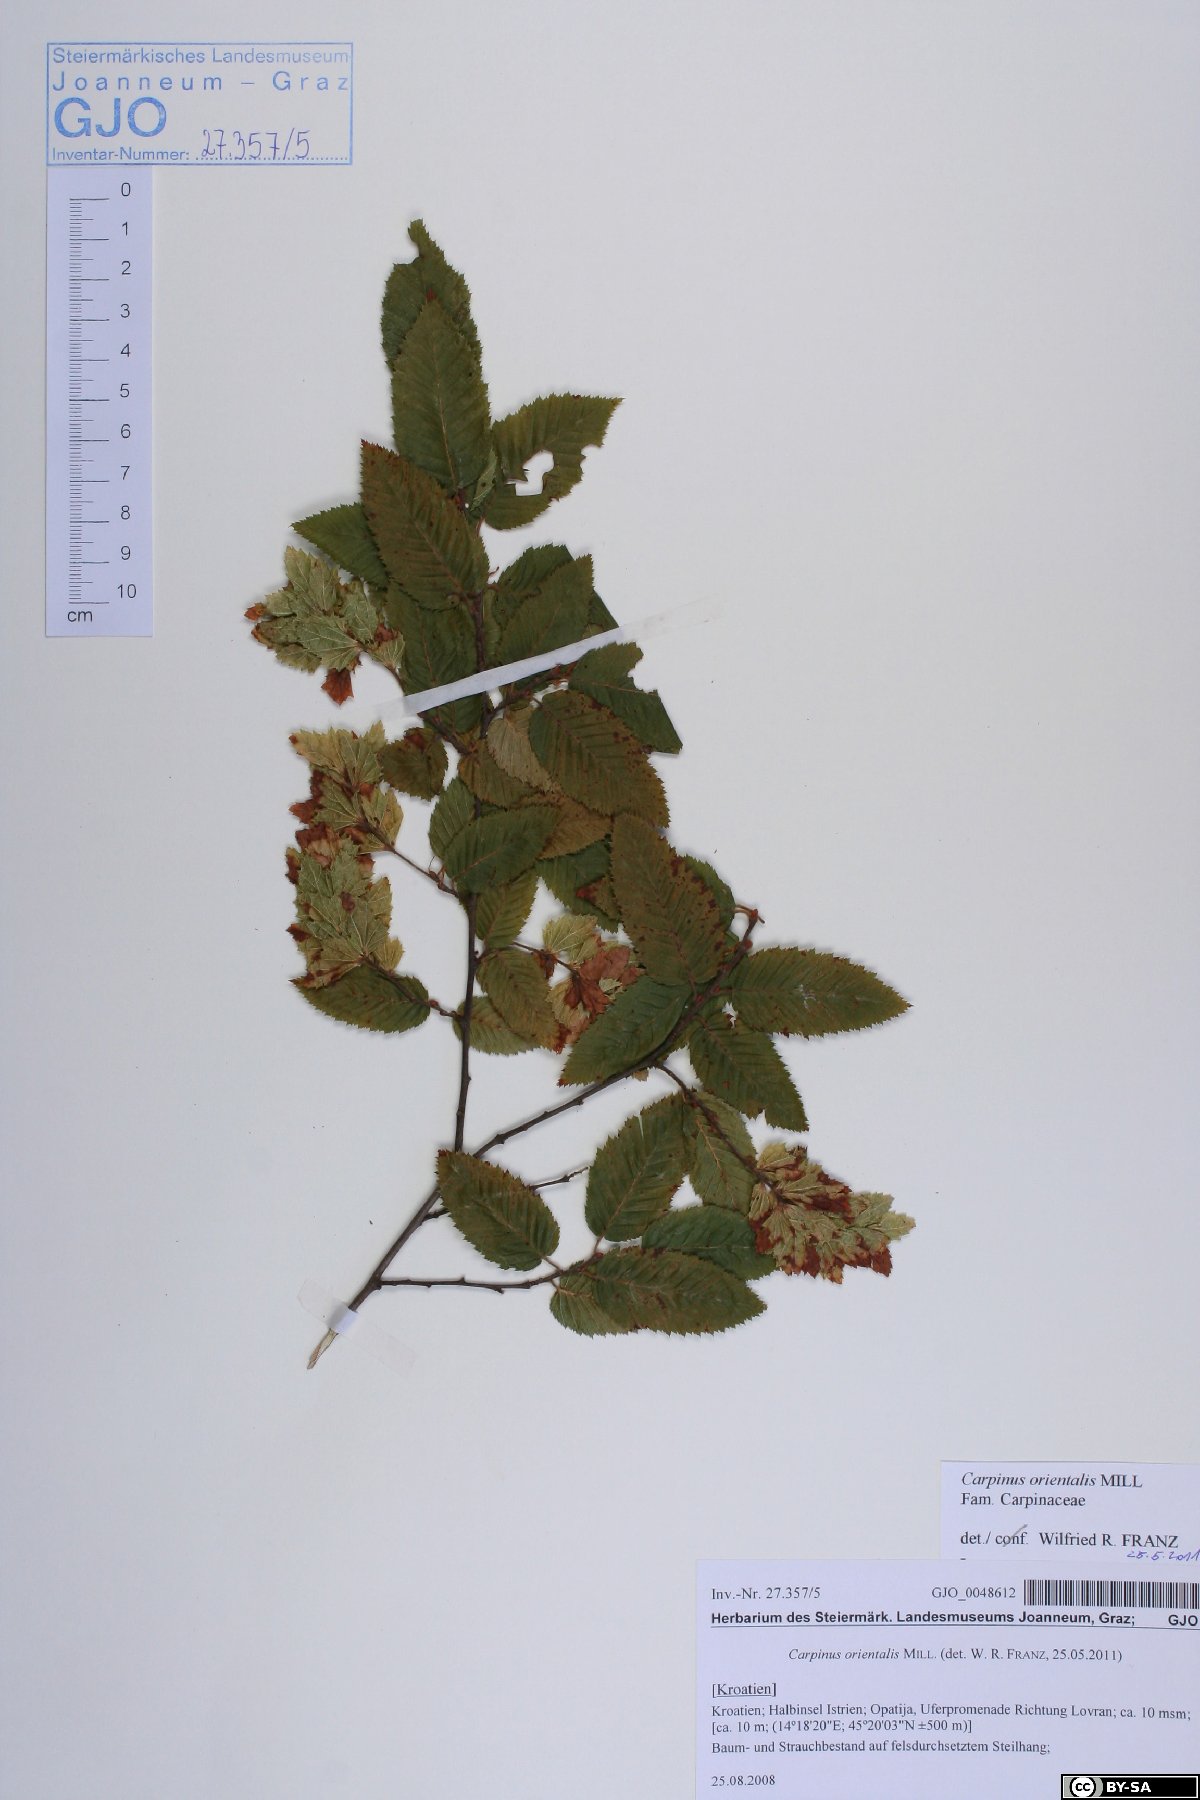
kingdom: Plantae
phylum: Tracheophyta
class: Magnoliopsida
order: Fagales
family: Betulaceae
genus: Carpinus
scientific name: Carpinus orientalis
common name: Eastern hornbeam
